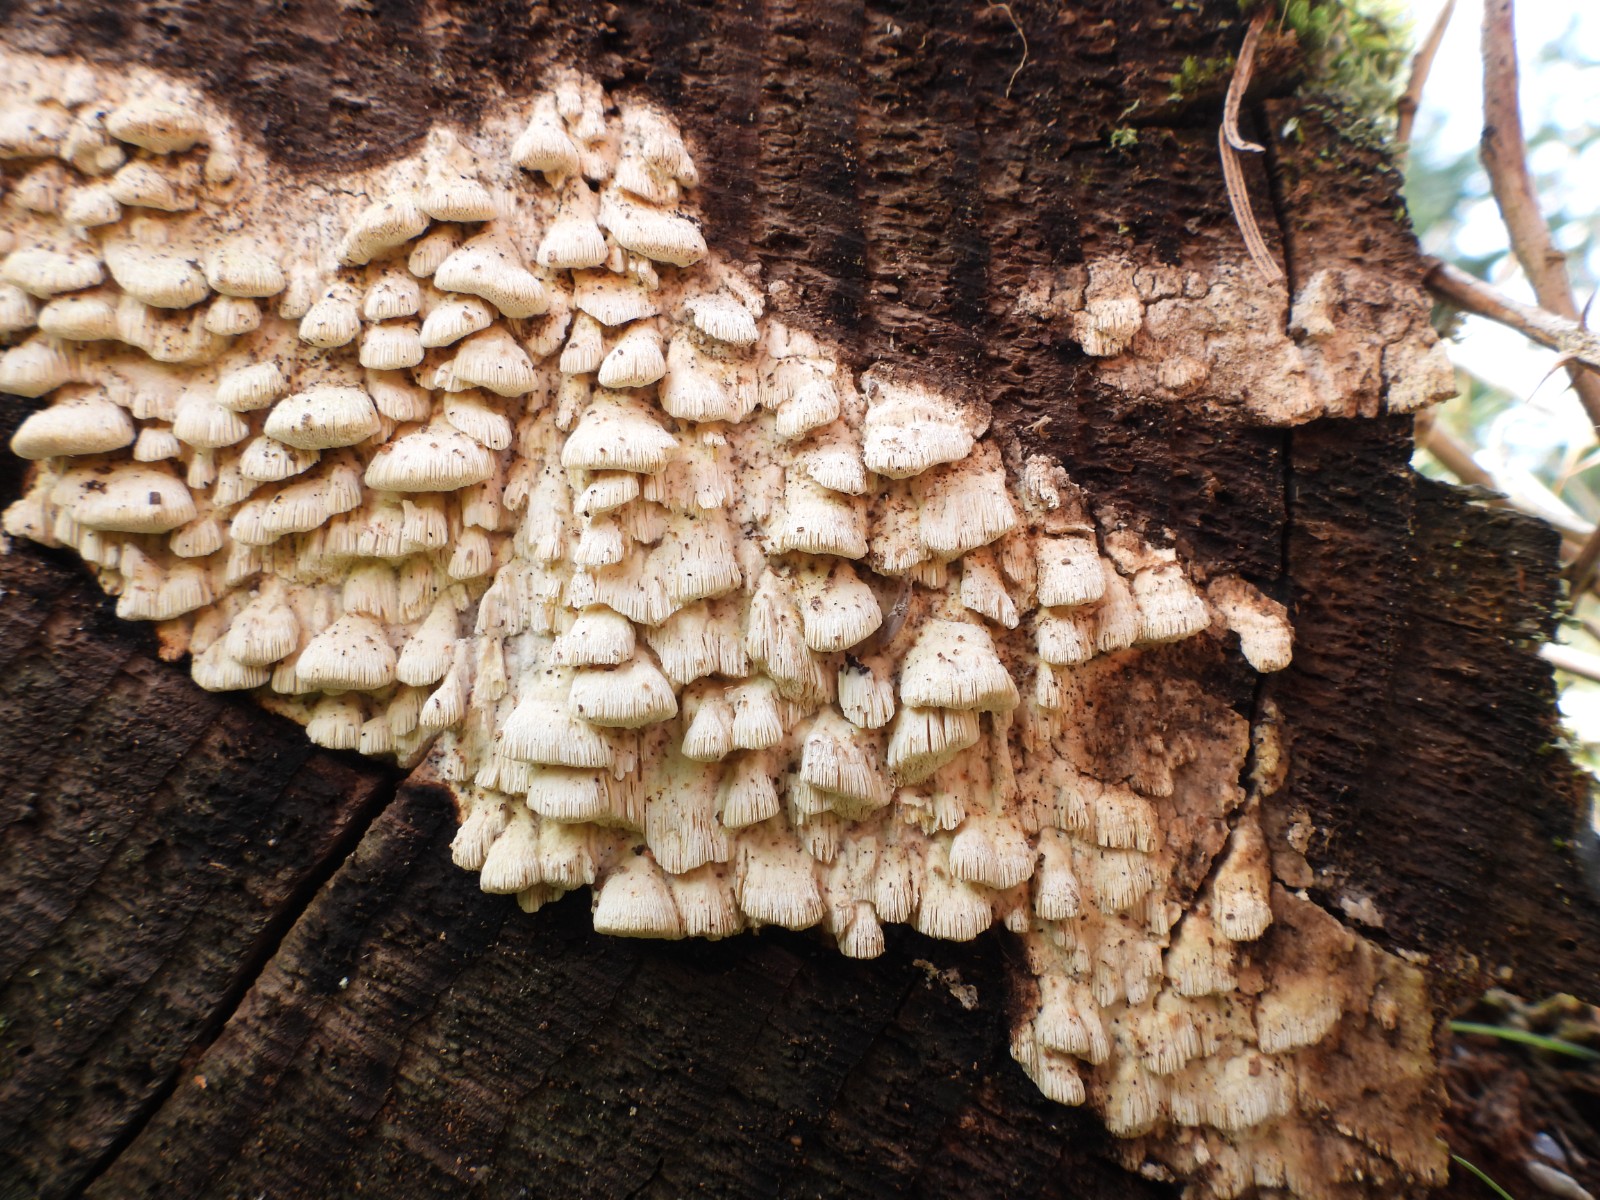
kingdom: Fungi
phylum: Basidiomycota
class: Agaricomycetes
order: Polyporales
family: Fomitopsidaceae
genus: Daedalea
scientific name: Daedalea xantha
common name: gul sejporesvamp
